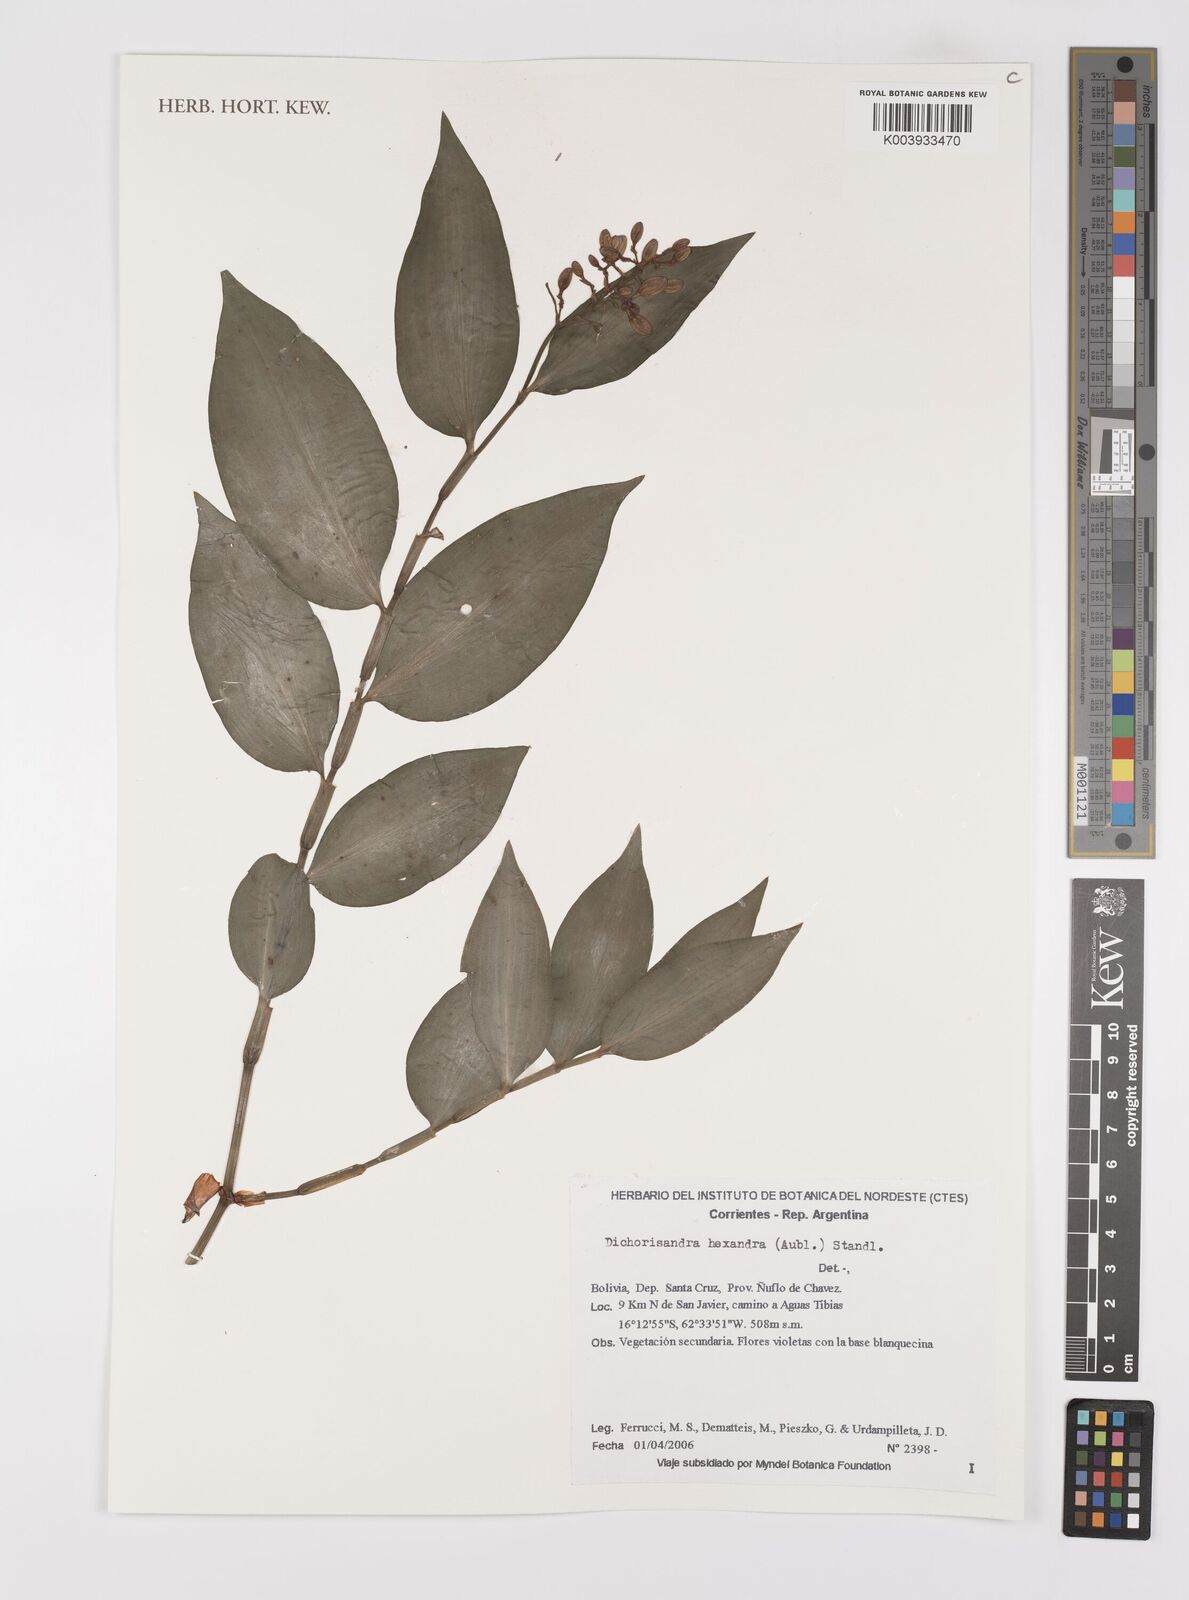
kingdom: Plantae
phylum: Tracheophyta
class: Liliopsida
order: Commelinales
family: Commelinaceae
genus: Dichorisandra
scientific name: Dichorisandra hexandra
